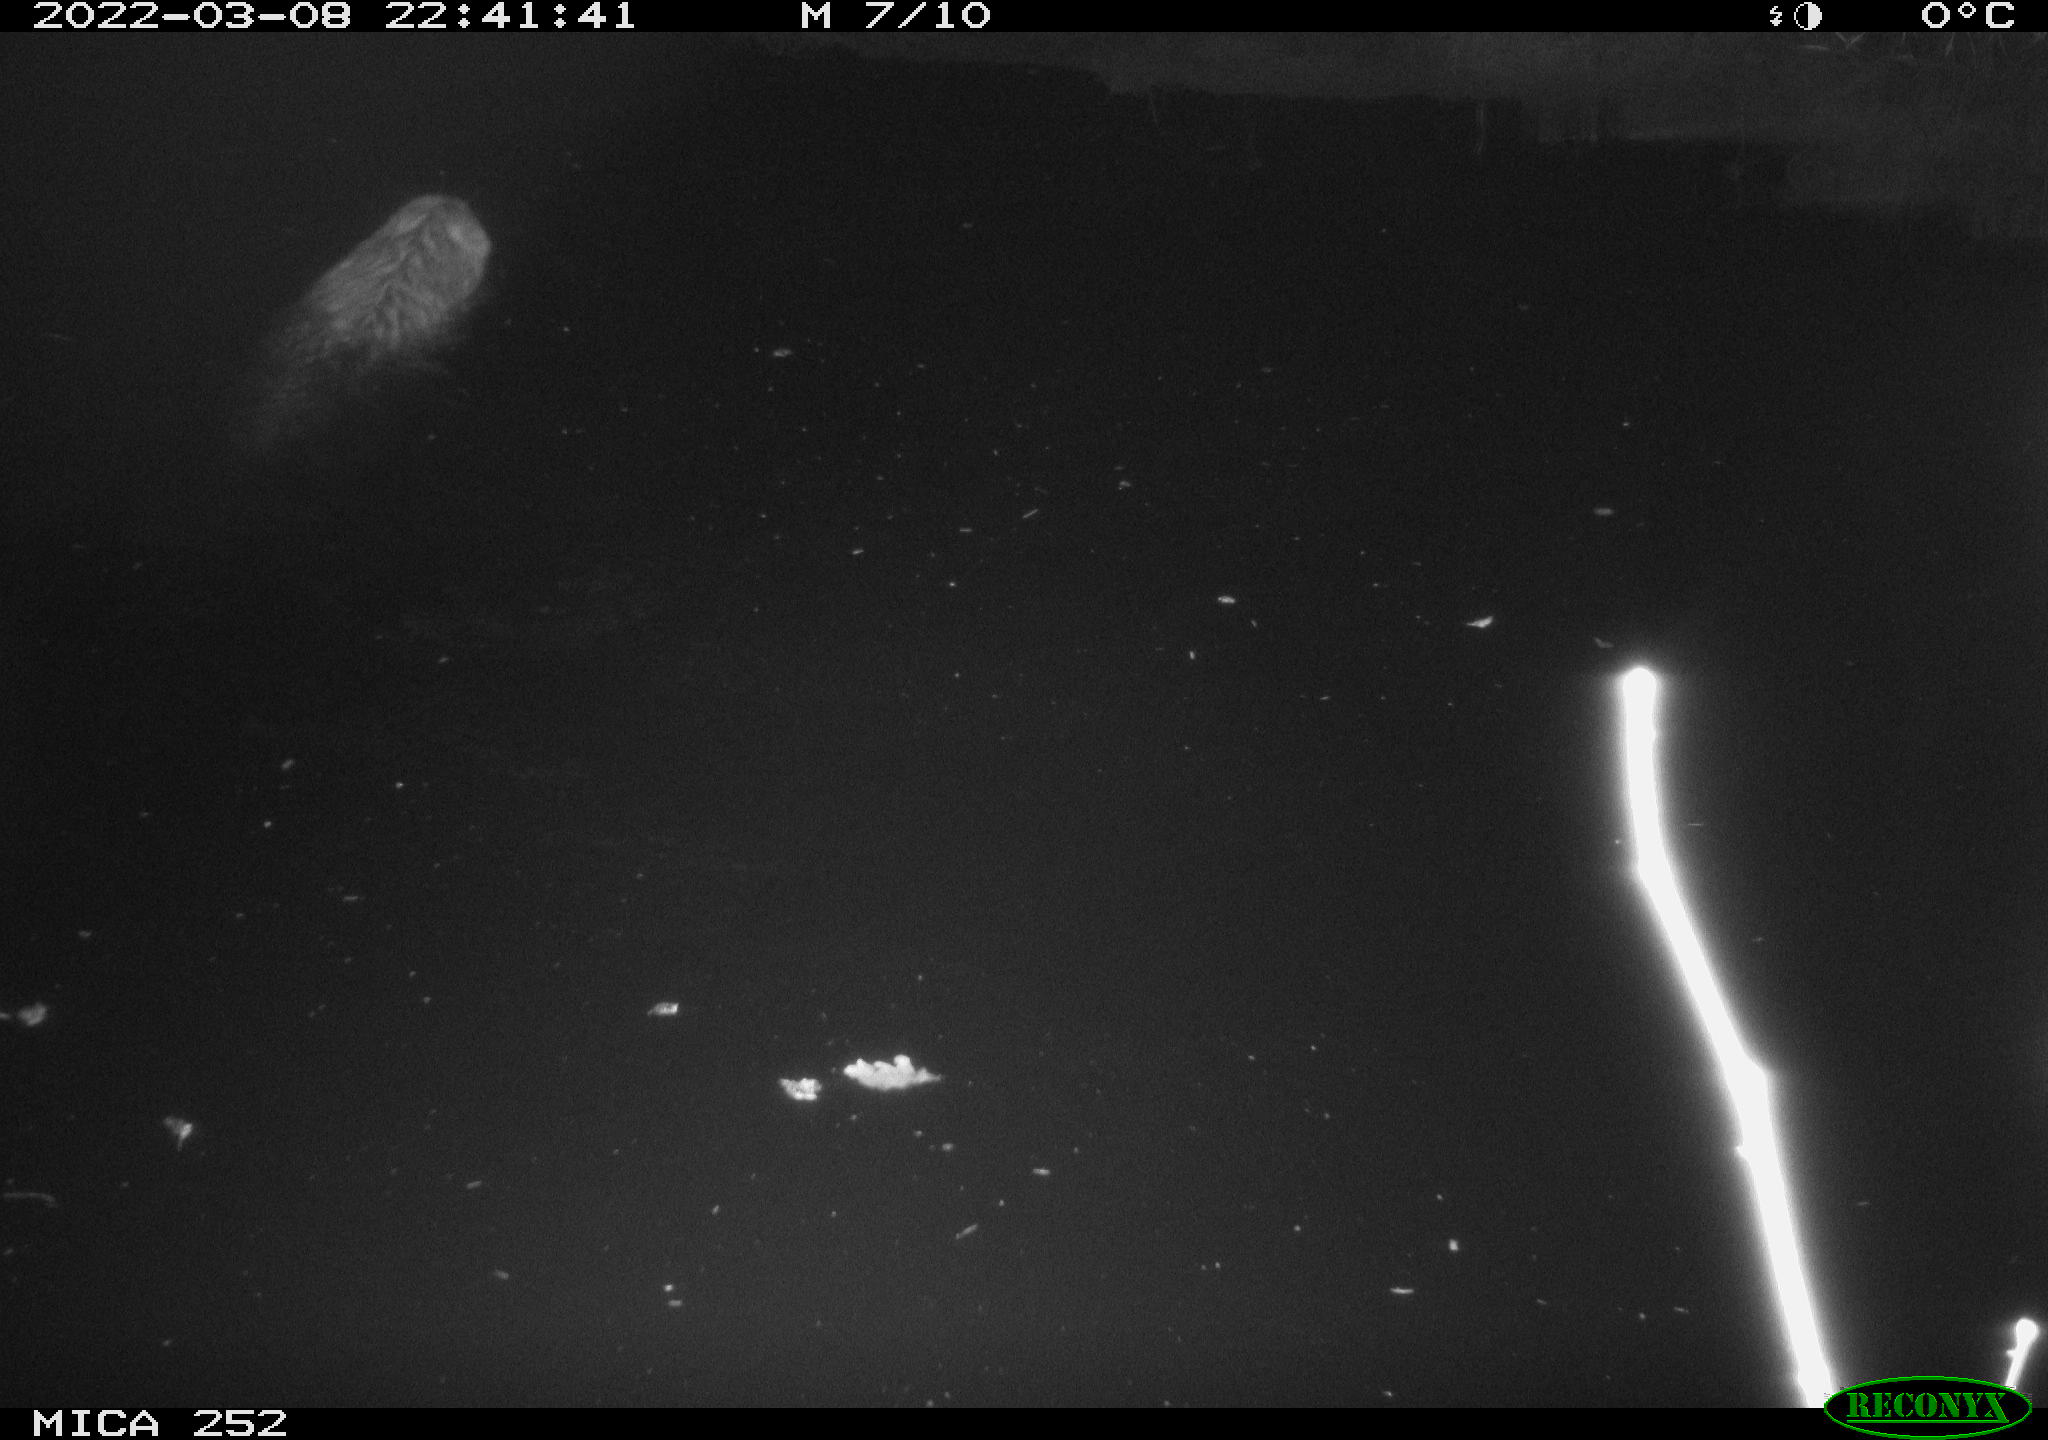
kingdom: Animalia
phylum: Chordata
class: Mammalia
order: Rodentia
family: Castoridae
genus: Castor
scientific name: Castor fiber
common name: Eurasian beaver
